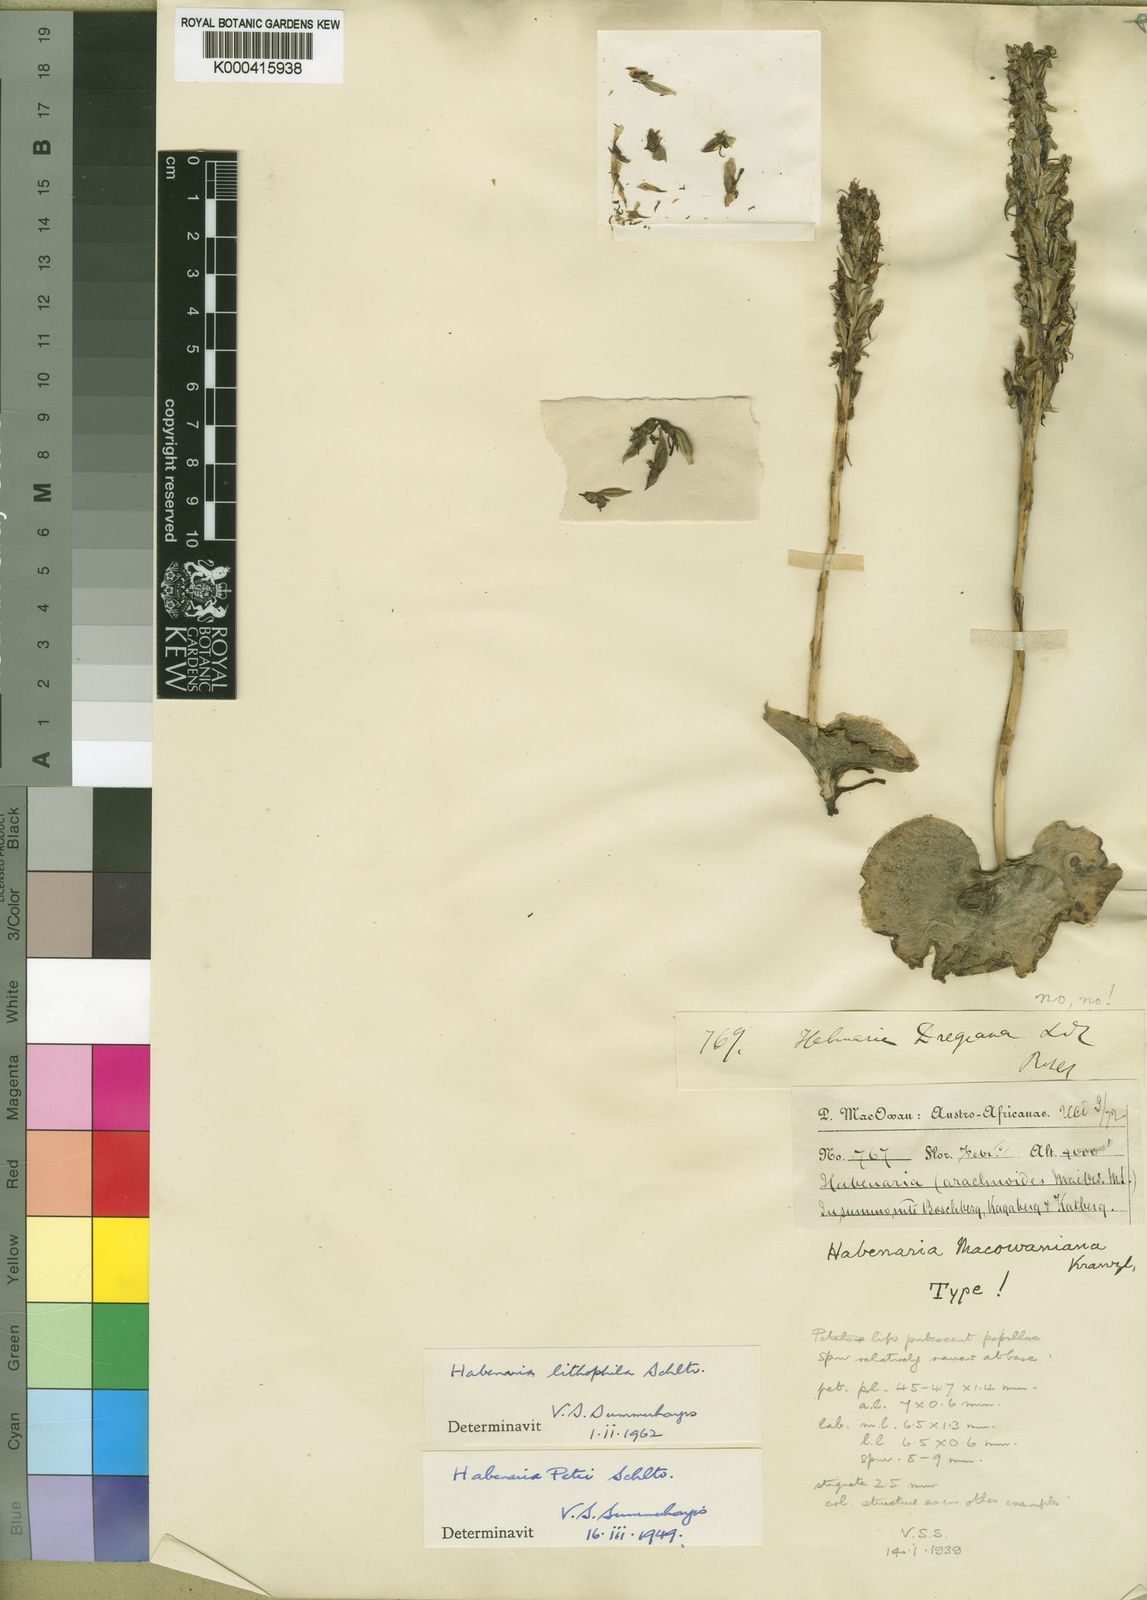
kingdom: Plantae
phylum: Tracheophyta
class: Liliopsida
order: Asparagales
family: Orchidaceae
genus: Habenaria
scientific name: Habenaria lithophila
